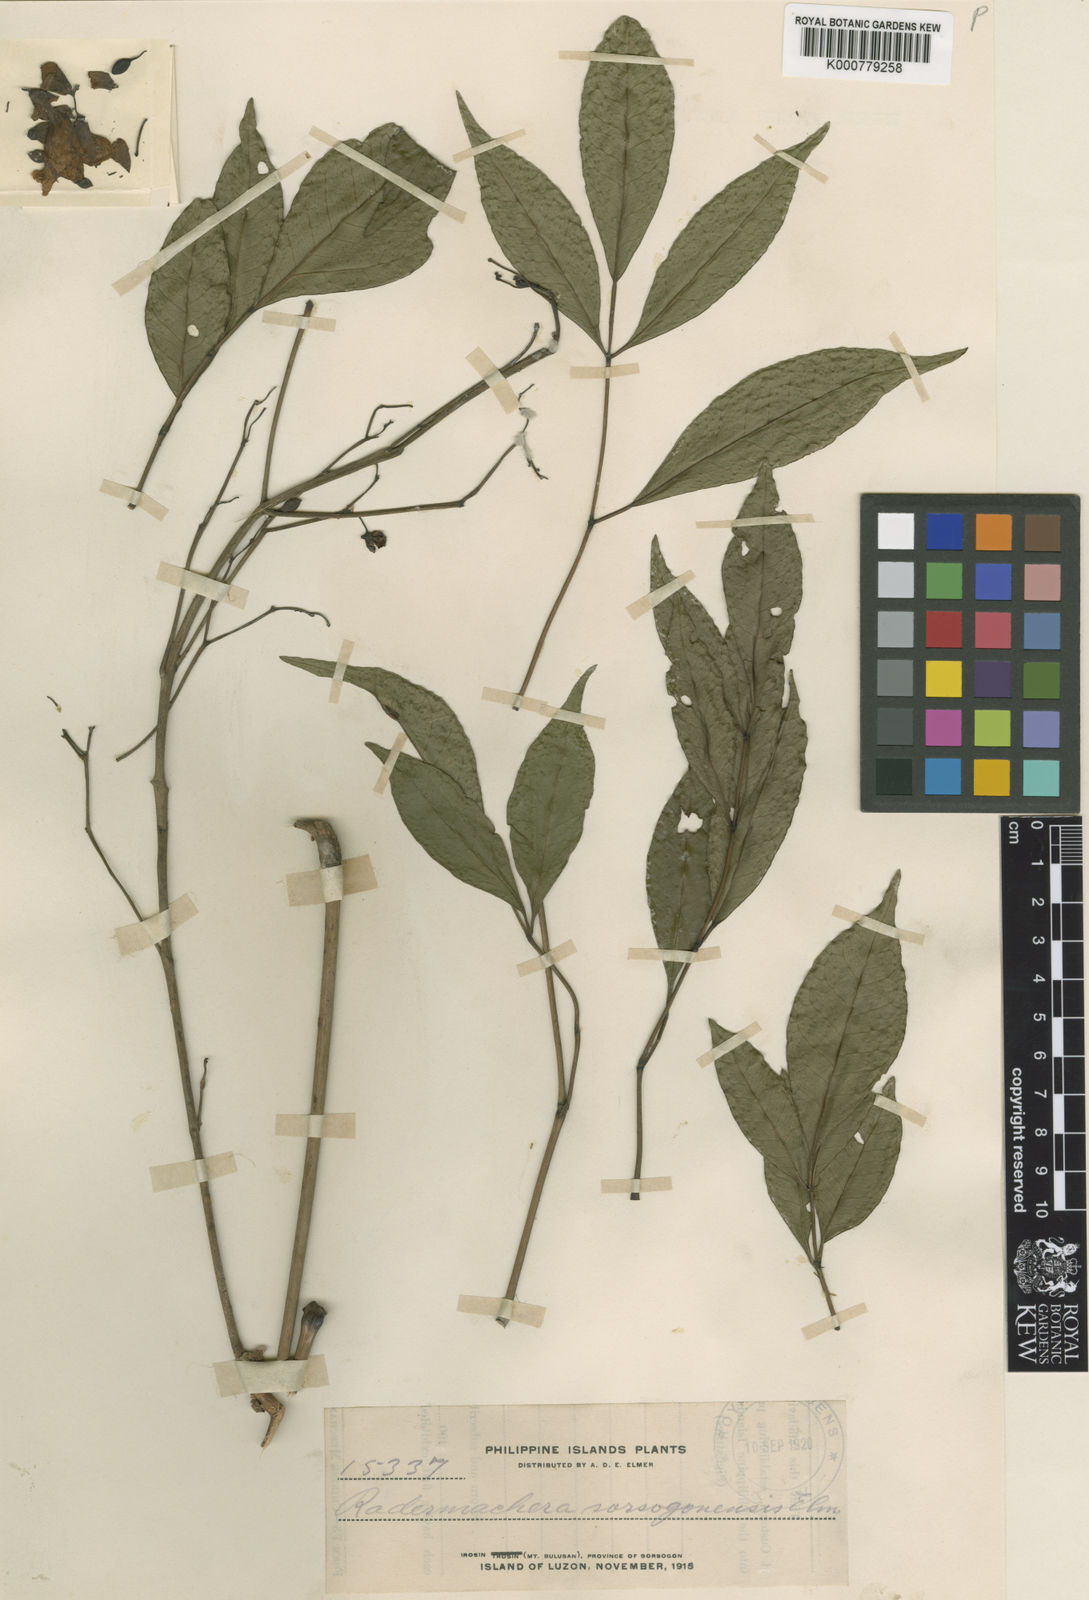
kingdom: Plantae
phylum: Tracheophyta
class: Magnoliopsida
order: Lamiales
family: Bignoniaceae
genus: Radermachera
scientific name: Radermachera pinnata
